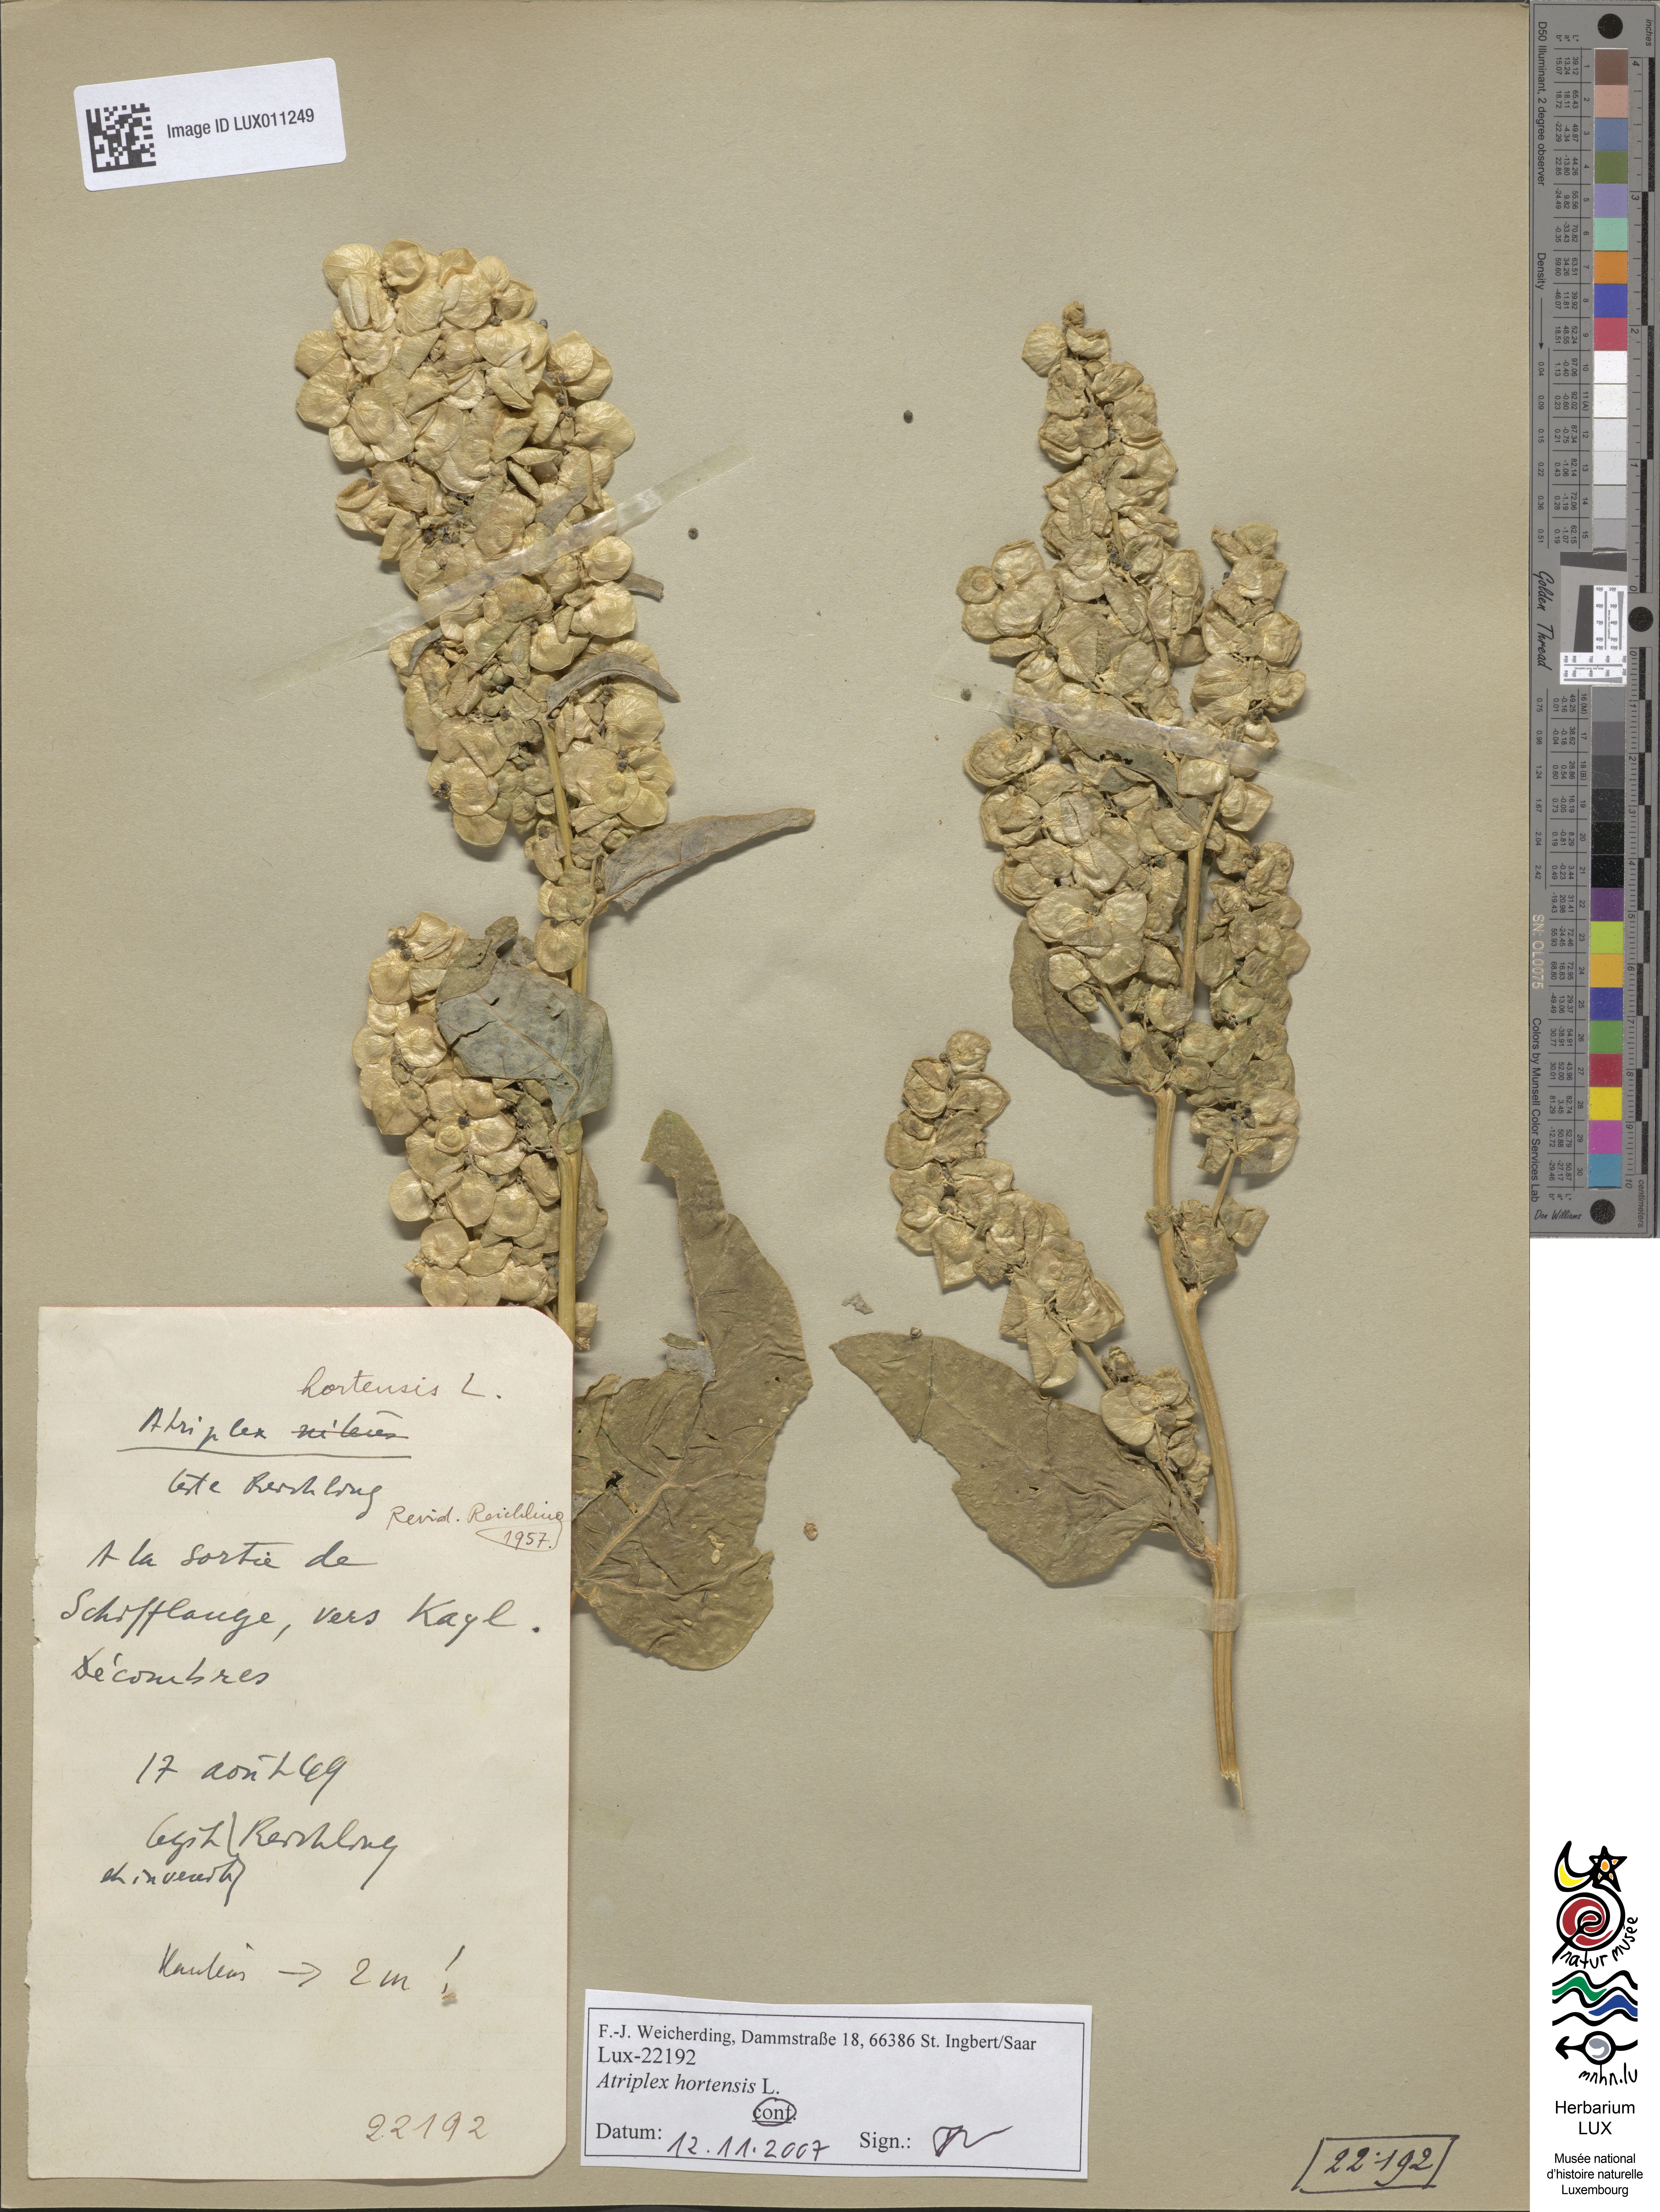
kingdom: Plantae
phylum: Tracheophyta
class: Magnoliopsida
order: Caryophyllales
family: Amaranthaceae
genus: Atriplex
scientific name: Atriplex hortensis
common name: Garden orache
